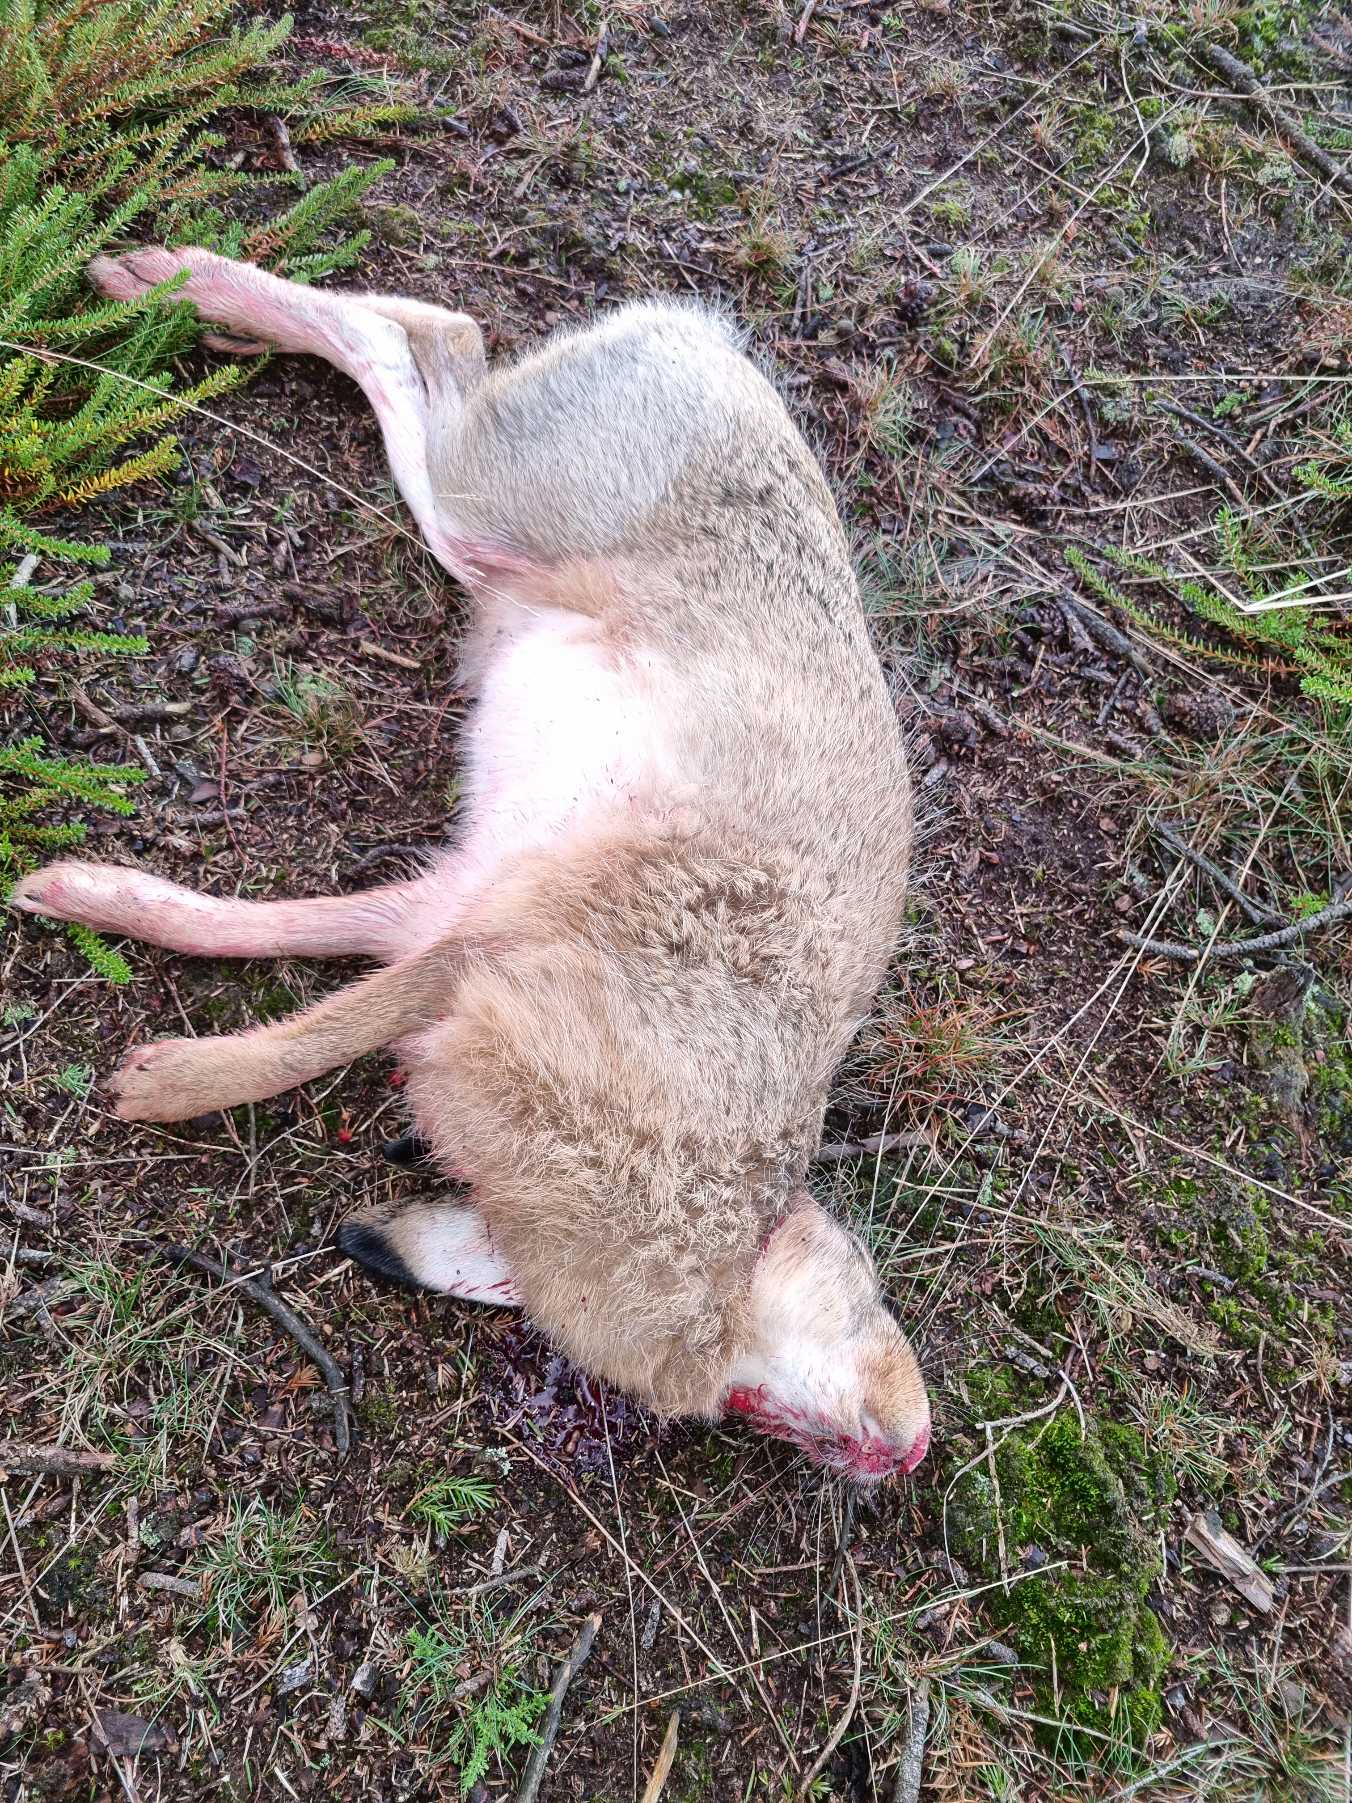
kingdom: Animalia
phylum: Chordata
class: Mammalia
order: Lagomorpha
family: Leporidae
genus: Lepus
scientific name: Lepus europaeus
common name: Hare
